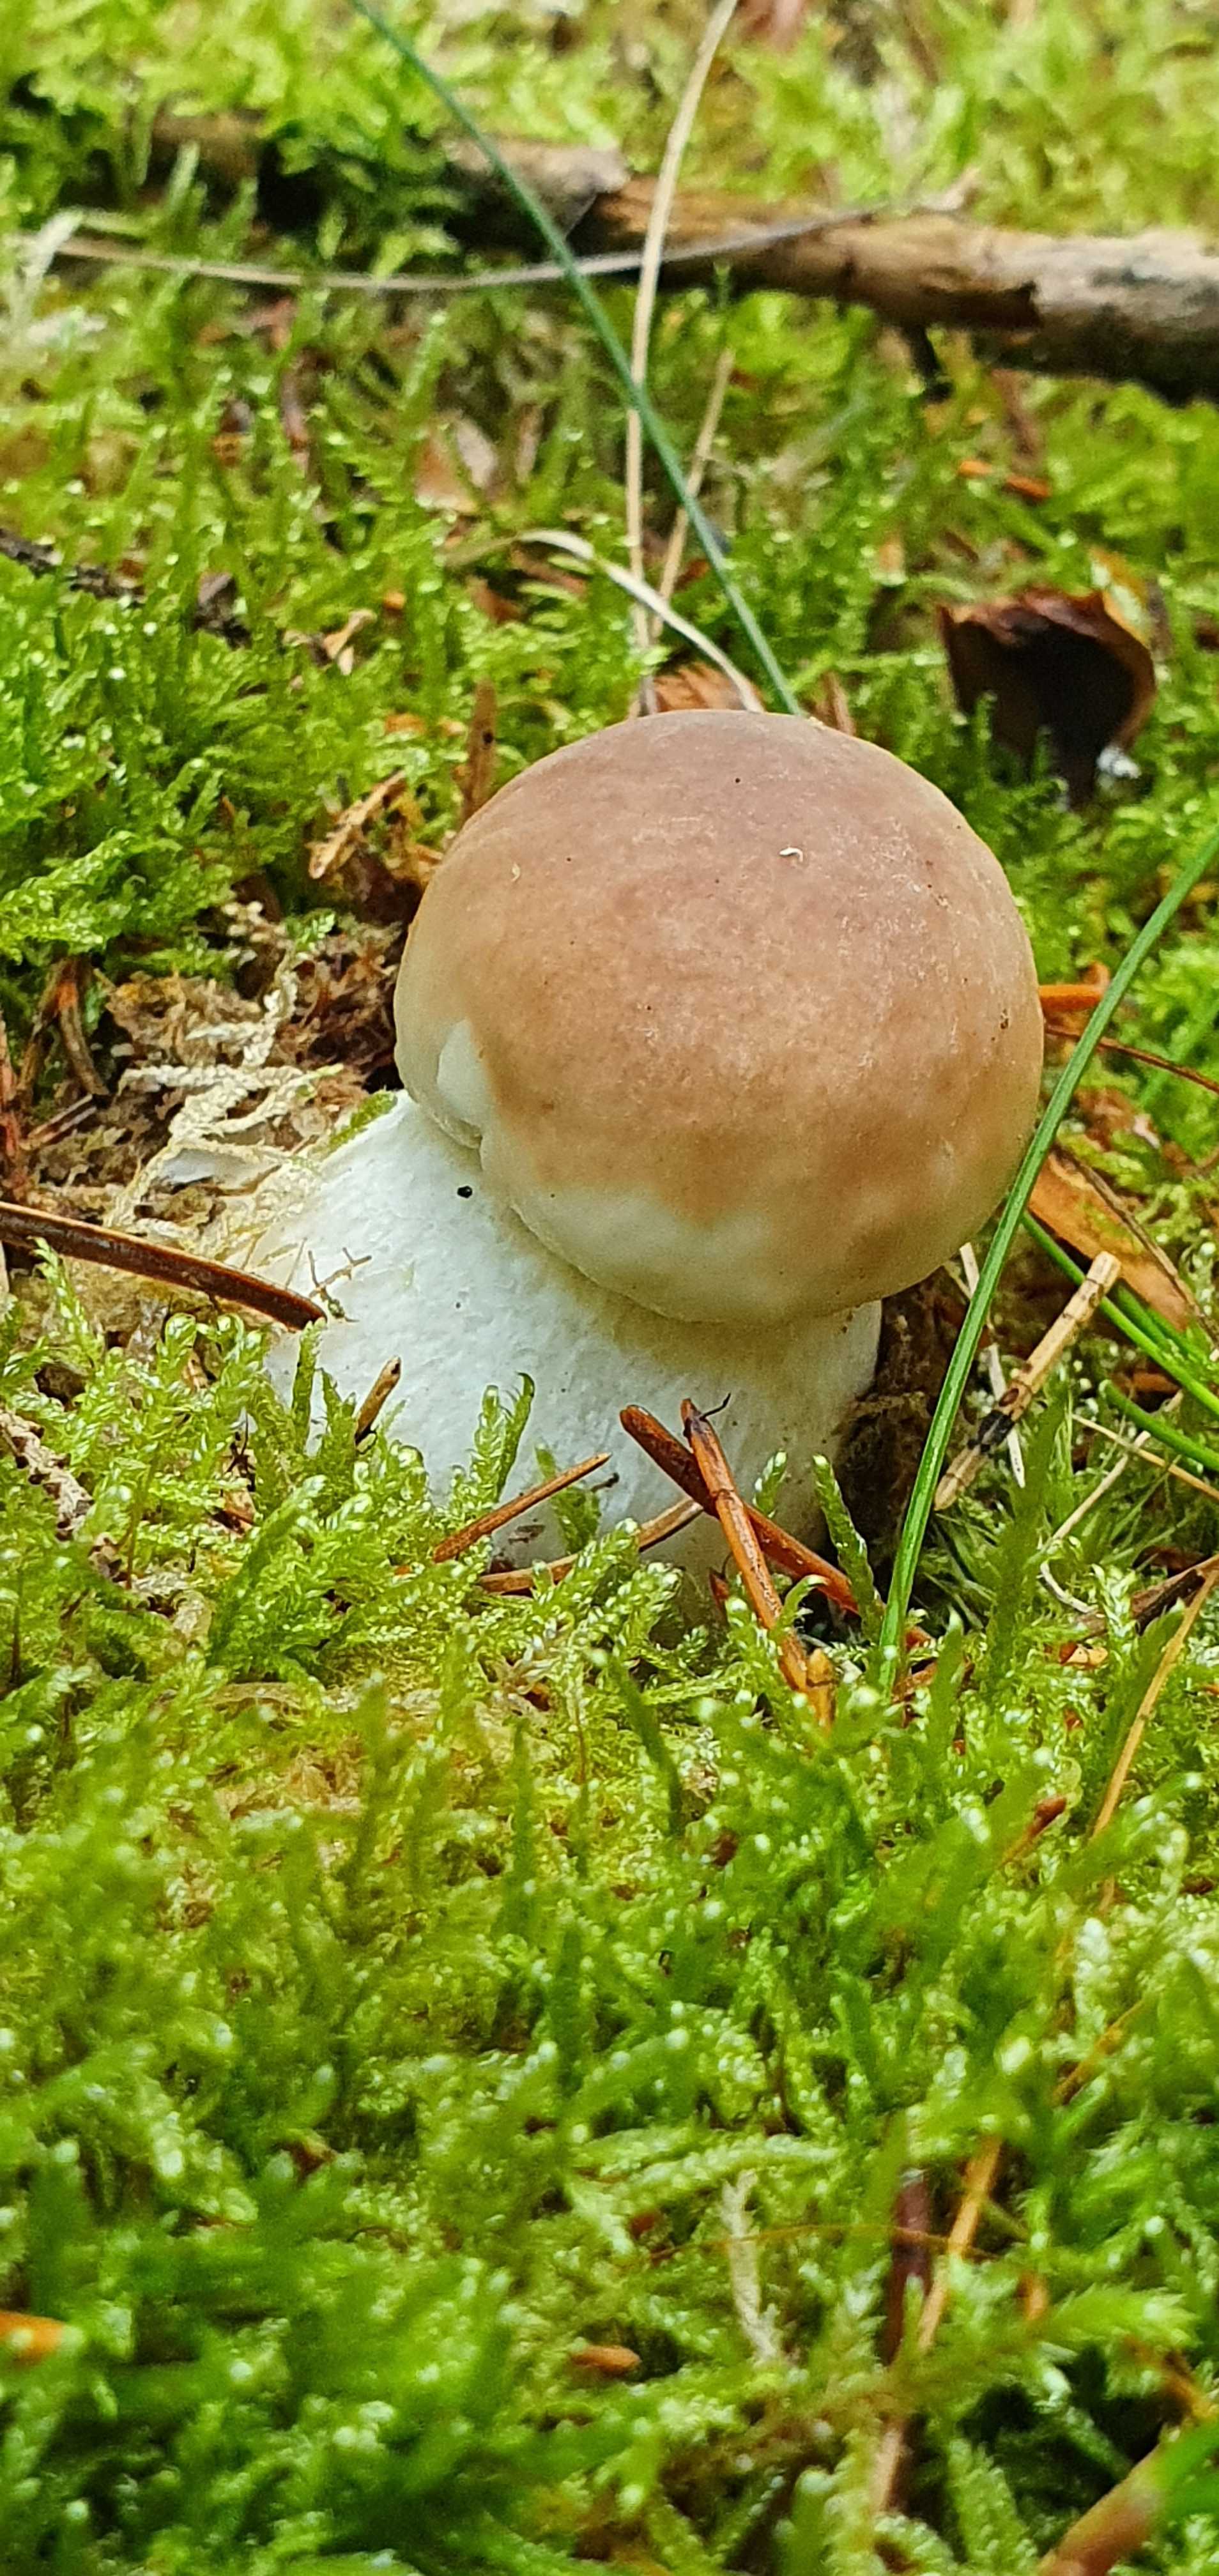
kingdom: Fungi
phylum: Basidiomycota
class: Agaricomycetes
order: Boletales
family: Boletaceae
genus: Boletus
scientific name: Boletus edulis
